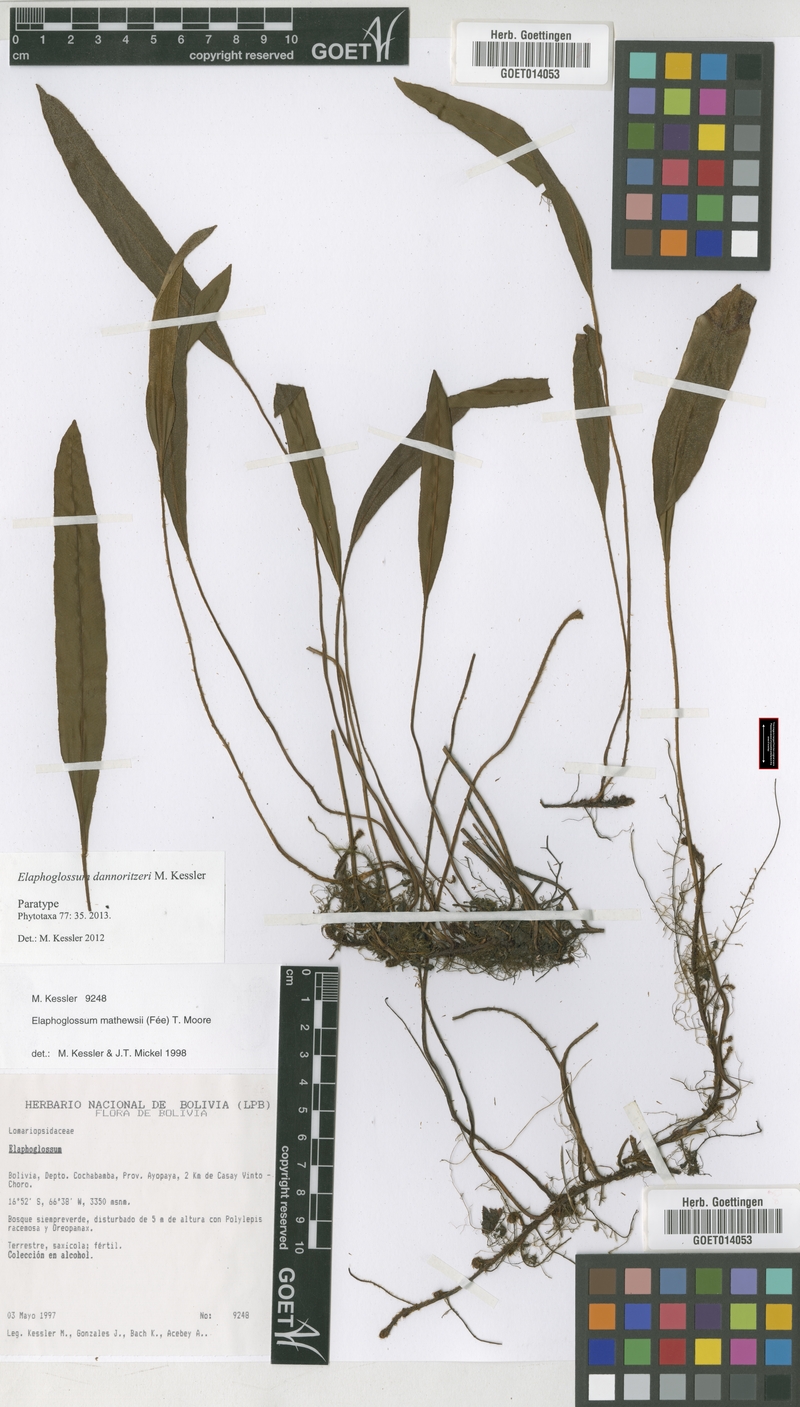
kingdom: Plantae
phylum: Tracheophyta
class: Polypodiopsida
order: Polypodiales
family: Dryopteridaceae
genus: Elaphoglossum
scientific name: Elaphoglossum dannoritzeri
